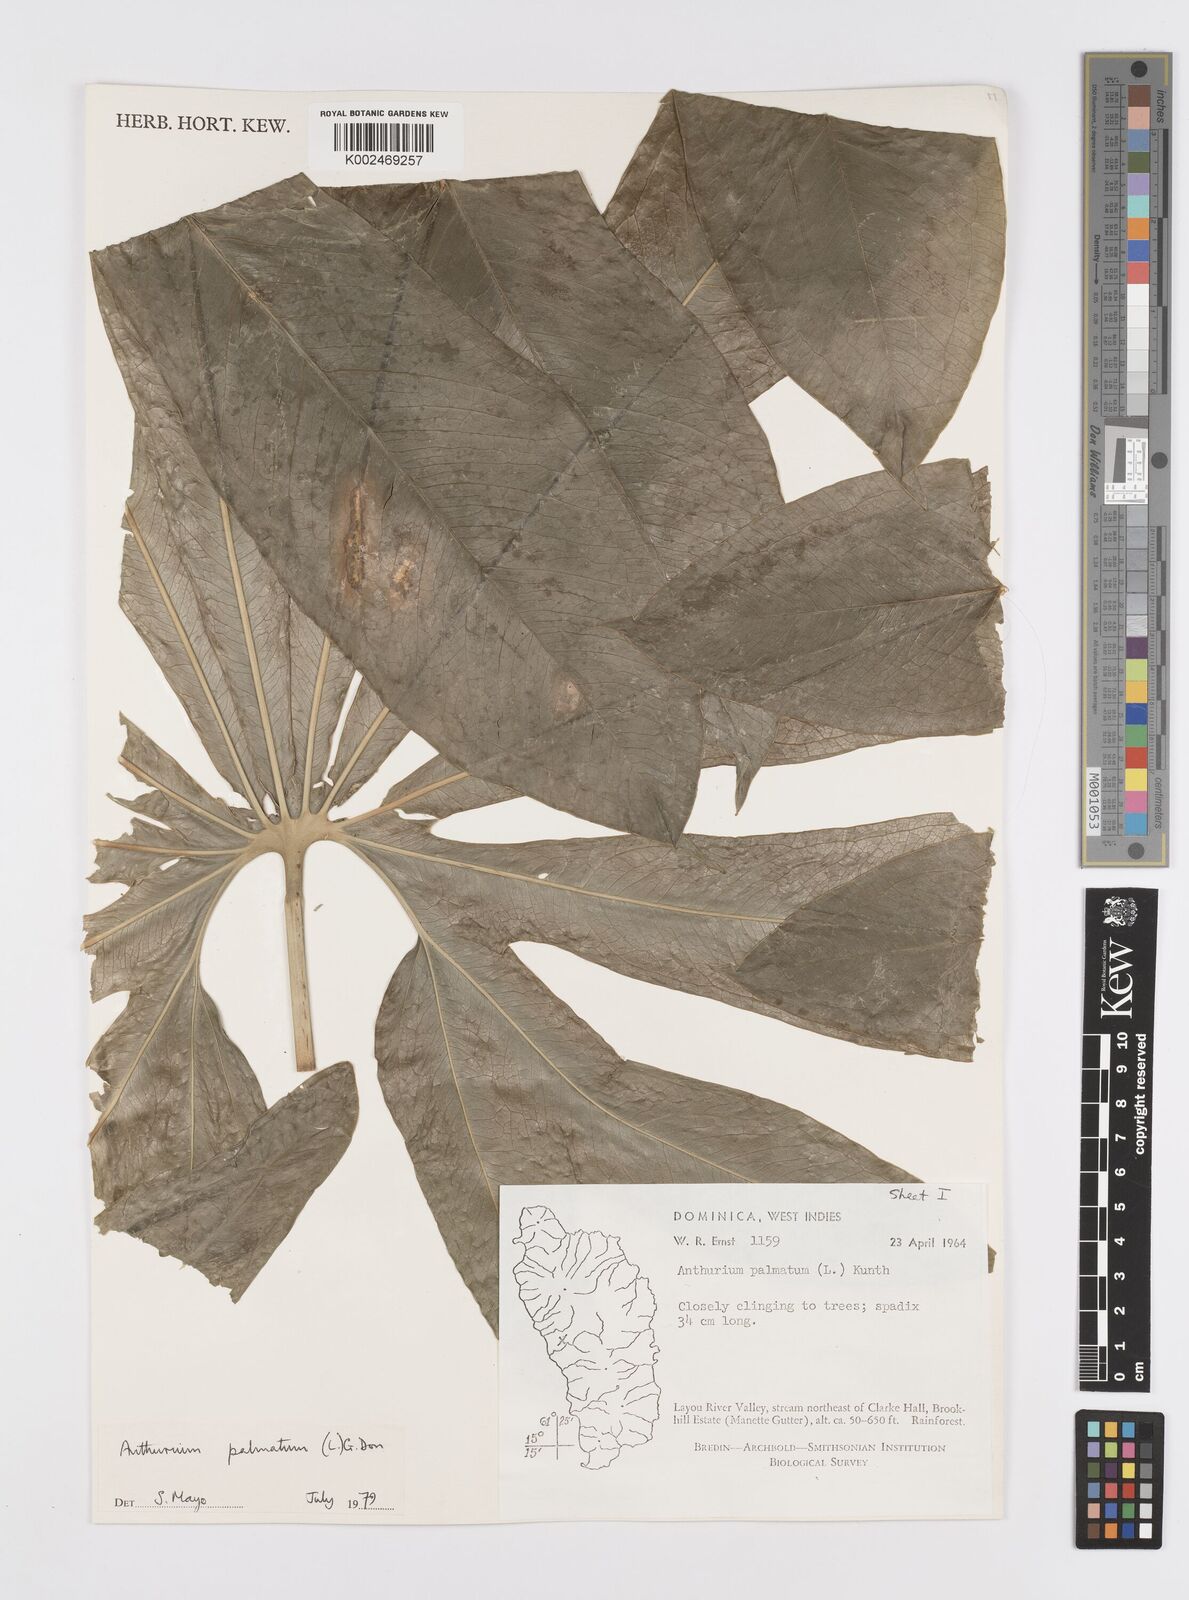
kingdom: Plantae
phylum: Tracheophyta
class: Liliopsida
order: Alismatales
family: Araceae
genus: Anthurium
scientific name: Anthurium palmatum
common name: Mibi
